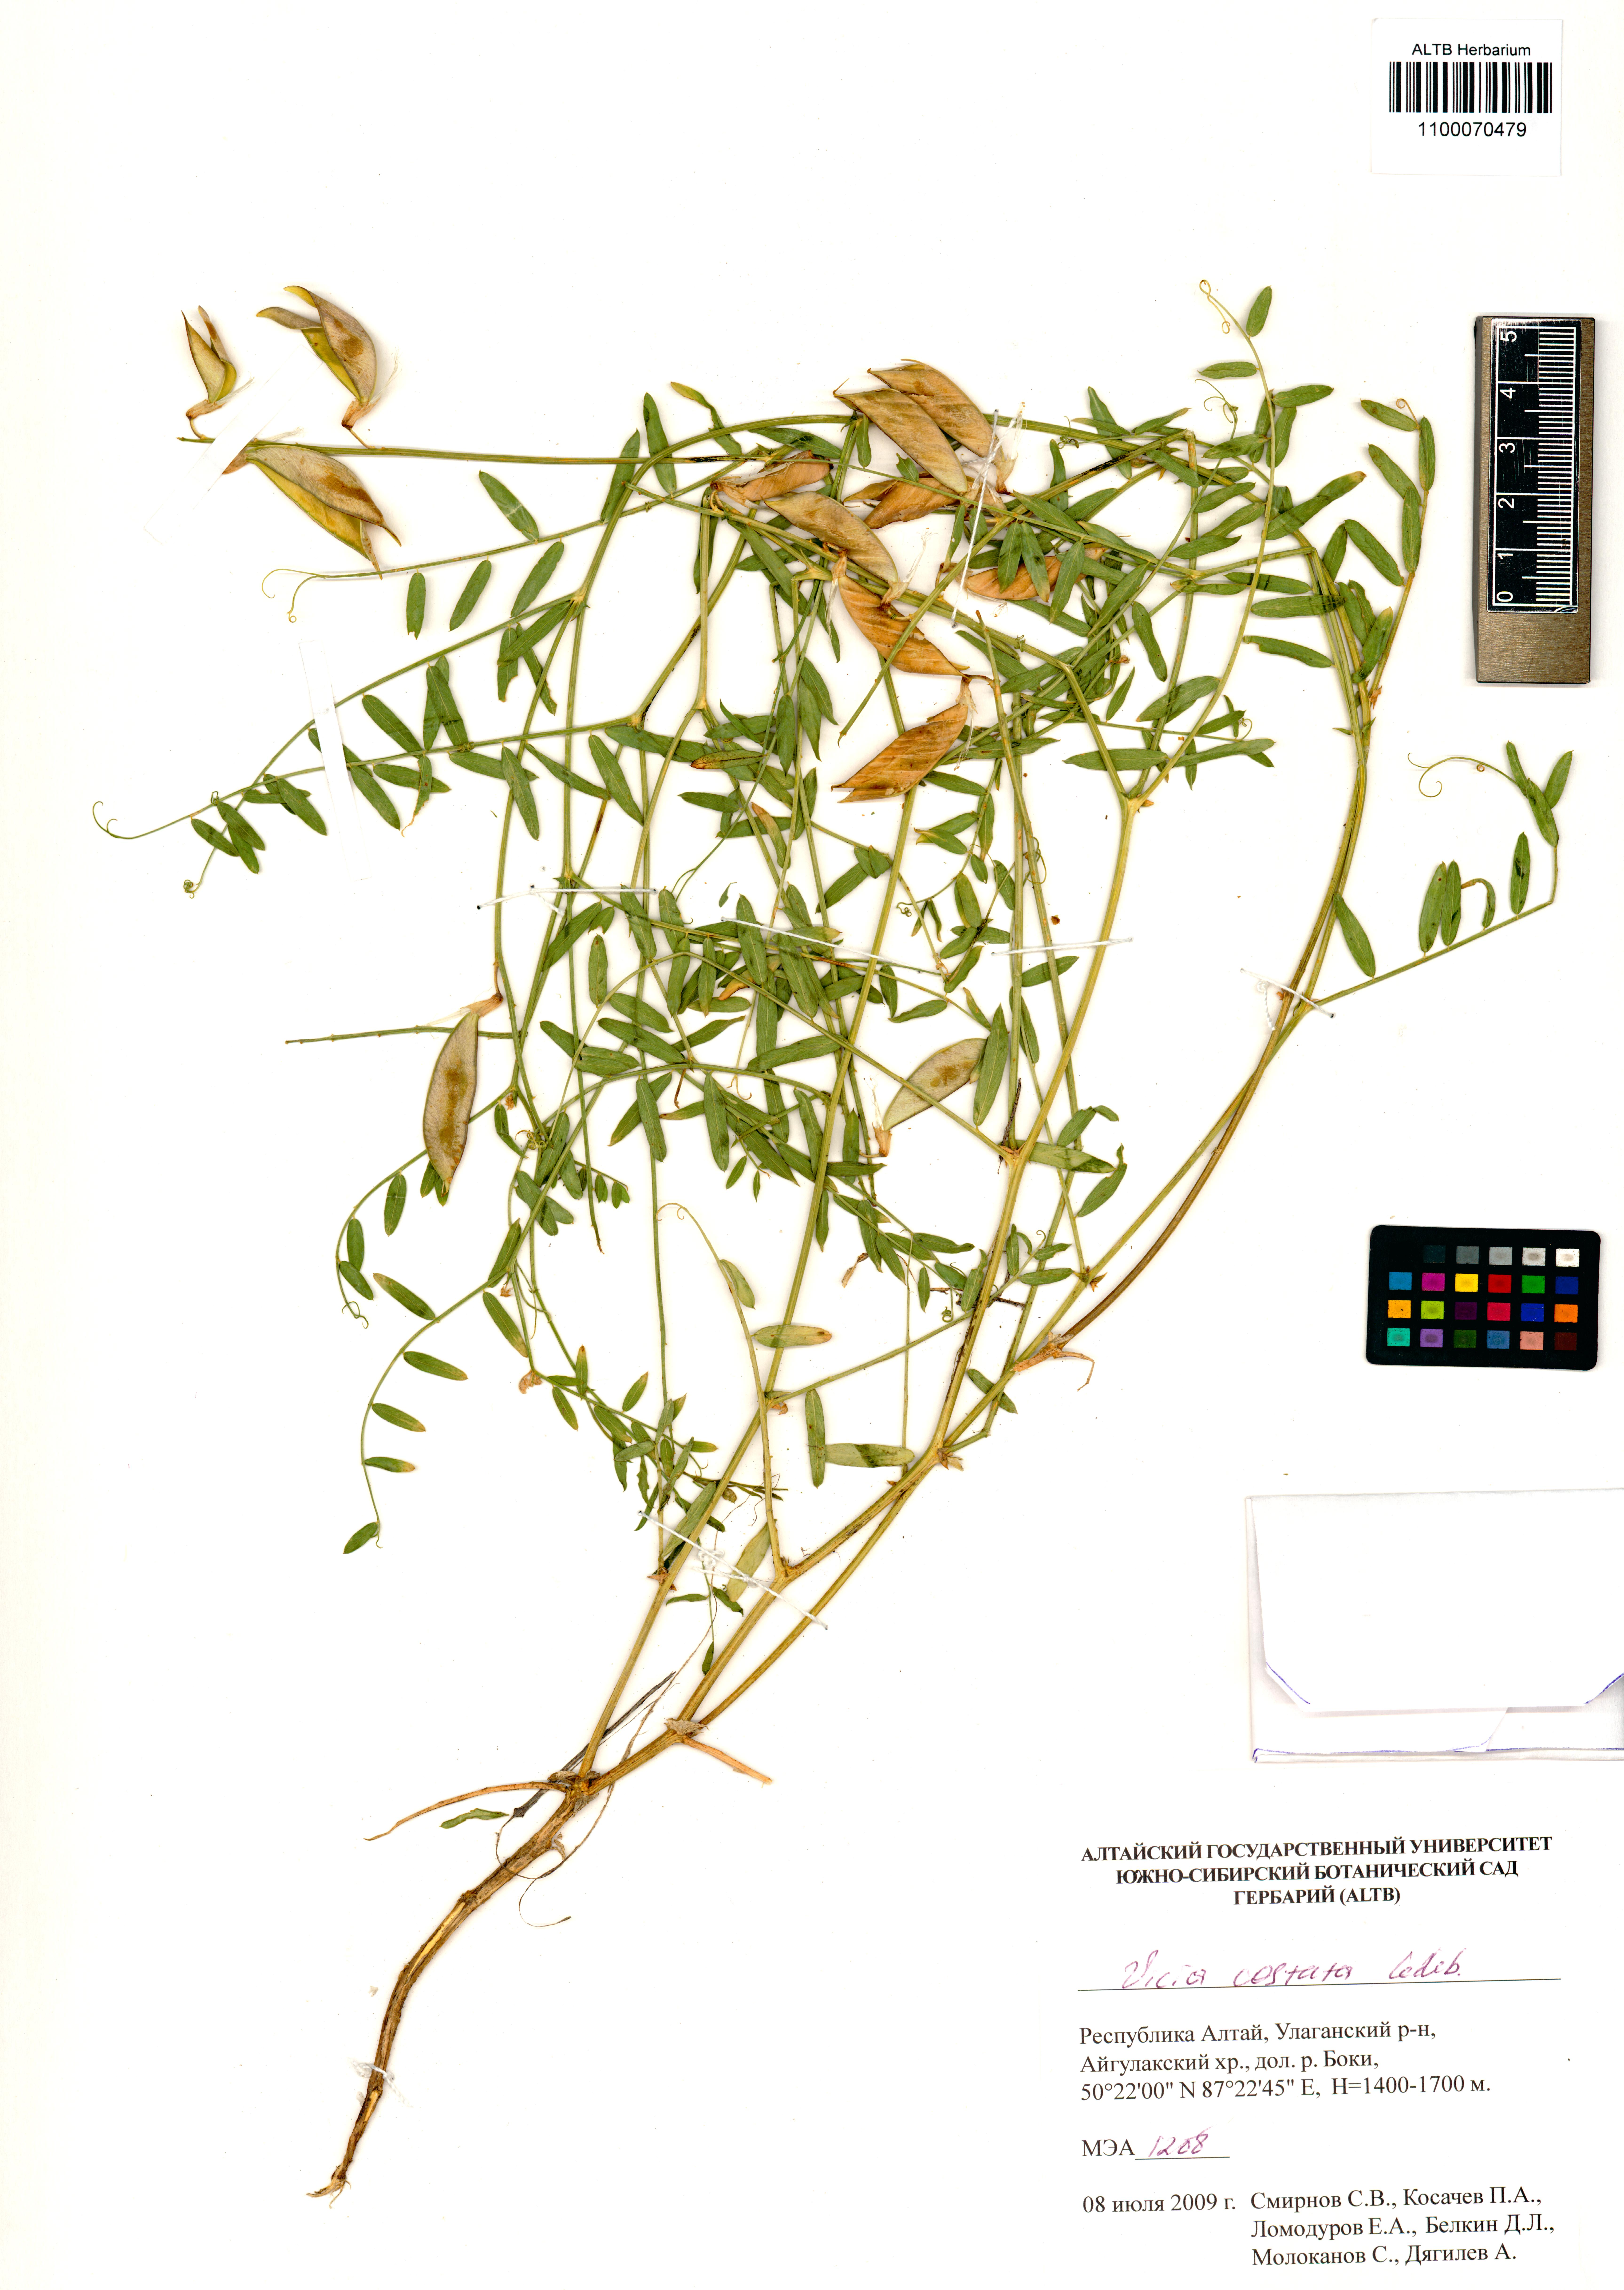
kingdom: Plantae
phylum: Tracheophyta
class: Magnoliopsida
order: Fabales
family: Fabaceae
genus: Vicia
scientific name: Vicia costata
